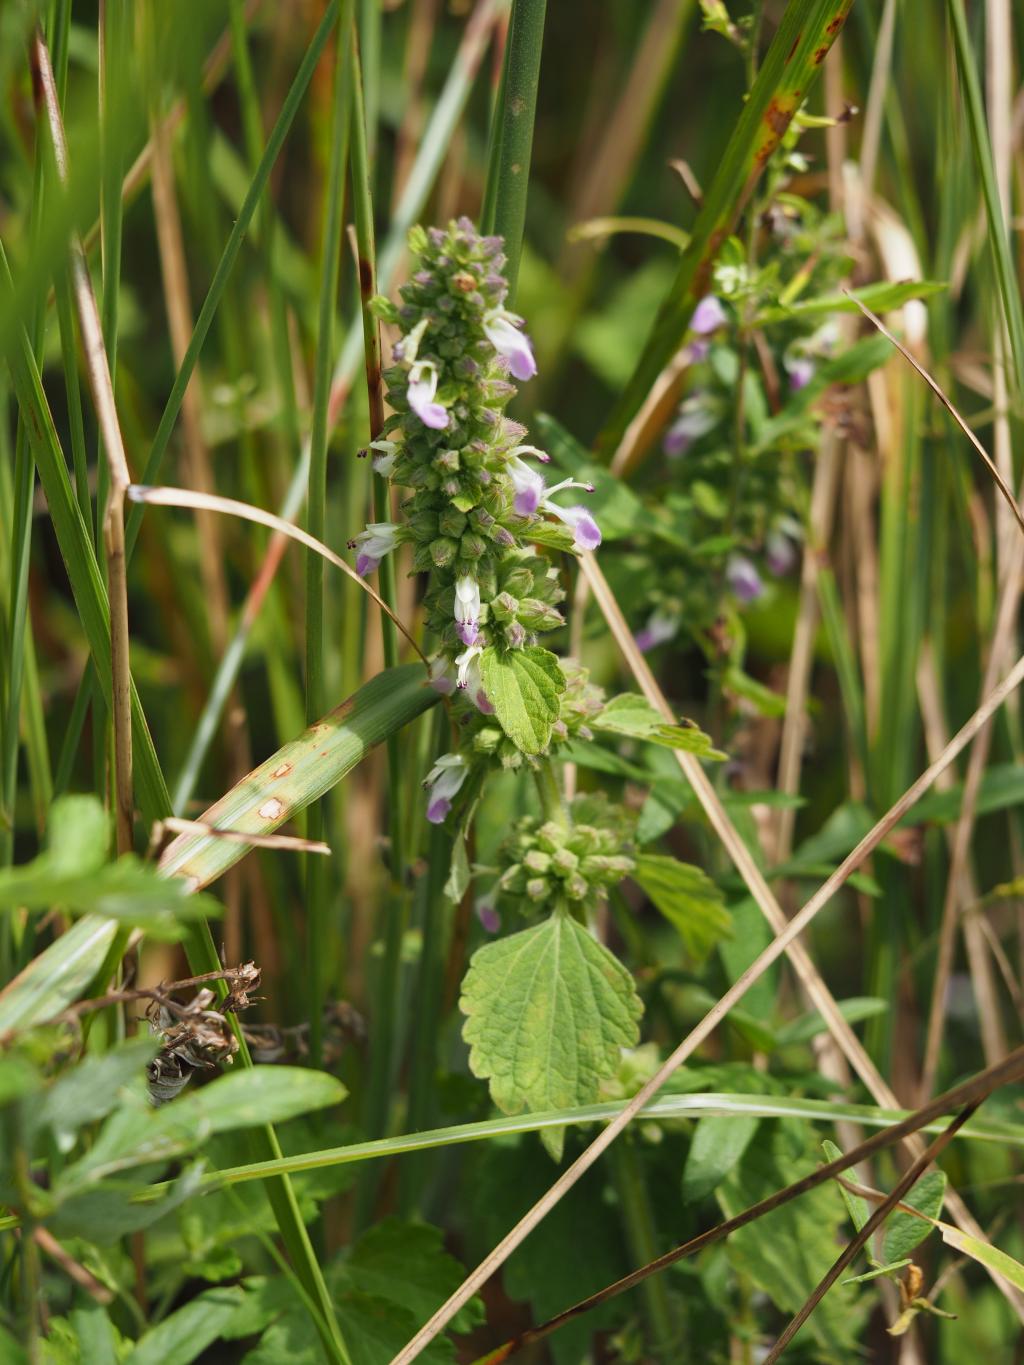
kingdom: Plantae
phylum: Tracheophyta
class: Magnoliopsida
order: Lamiales
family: Lamiaceae
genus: Anisomeles
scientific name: Anisomeles indica
